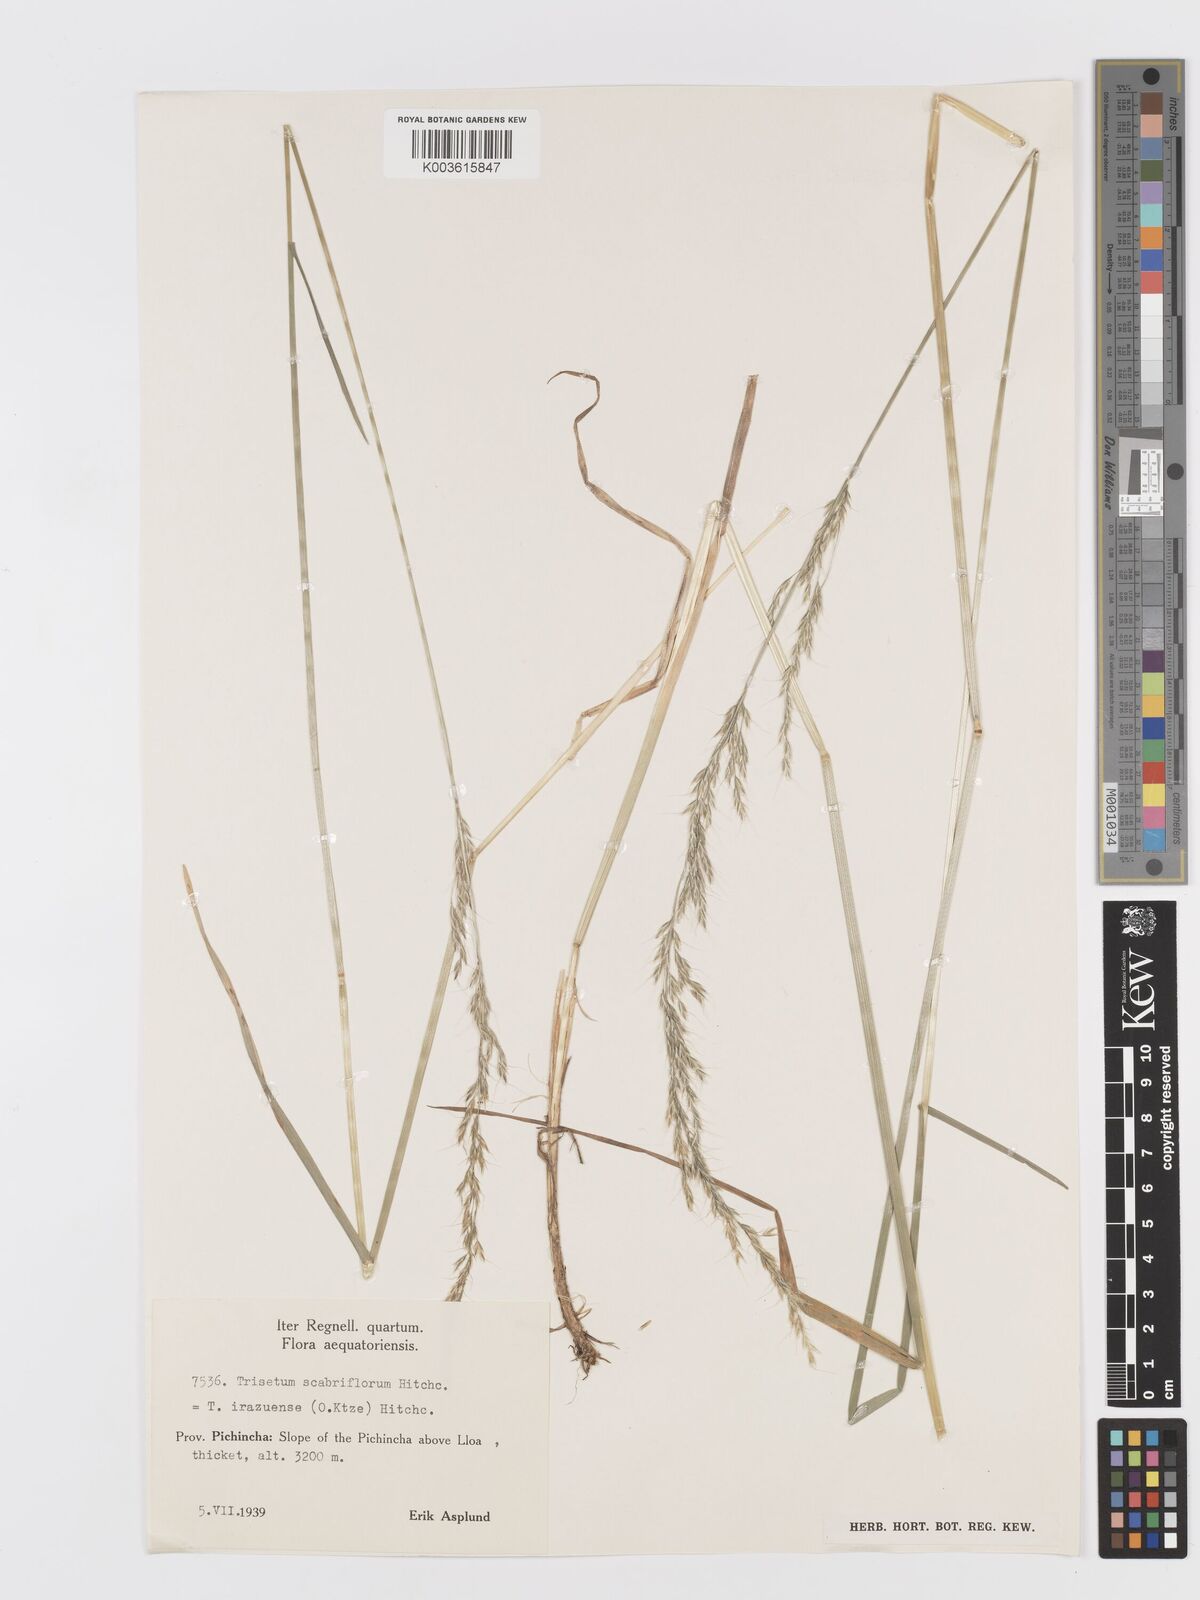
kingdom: Plantae
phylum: Tracheophyta
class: Liliopsida
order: Poales
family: Poaceae
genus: Peyritschia
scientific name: Peyritschia irazuensis
